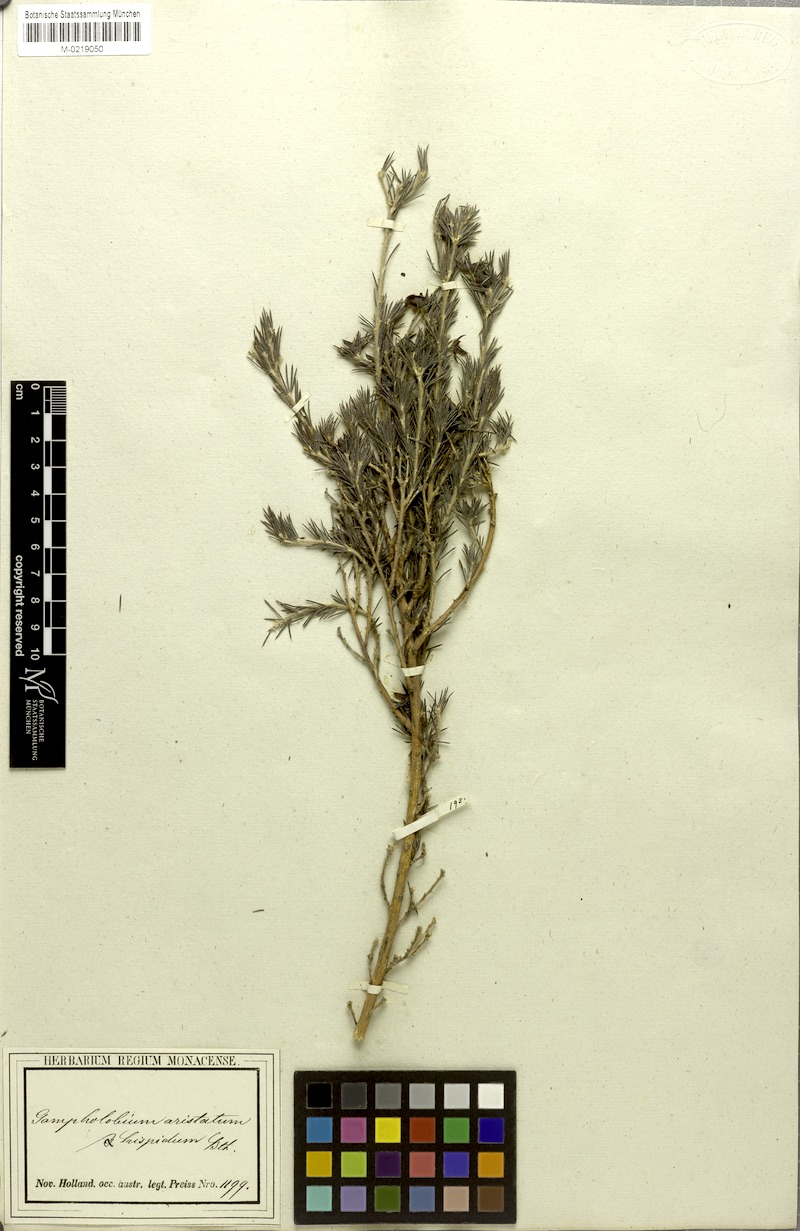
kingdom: Plantae
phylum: Tracheophyta
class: Magnoliopsida
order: Fabales
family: Fabaceae
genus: Gompholobium
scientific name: Gompholobium aristatum
